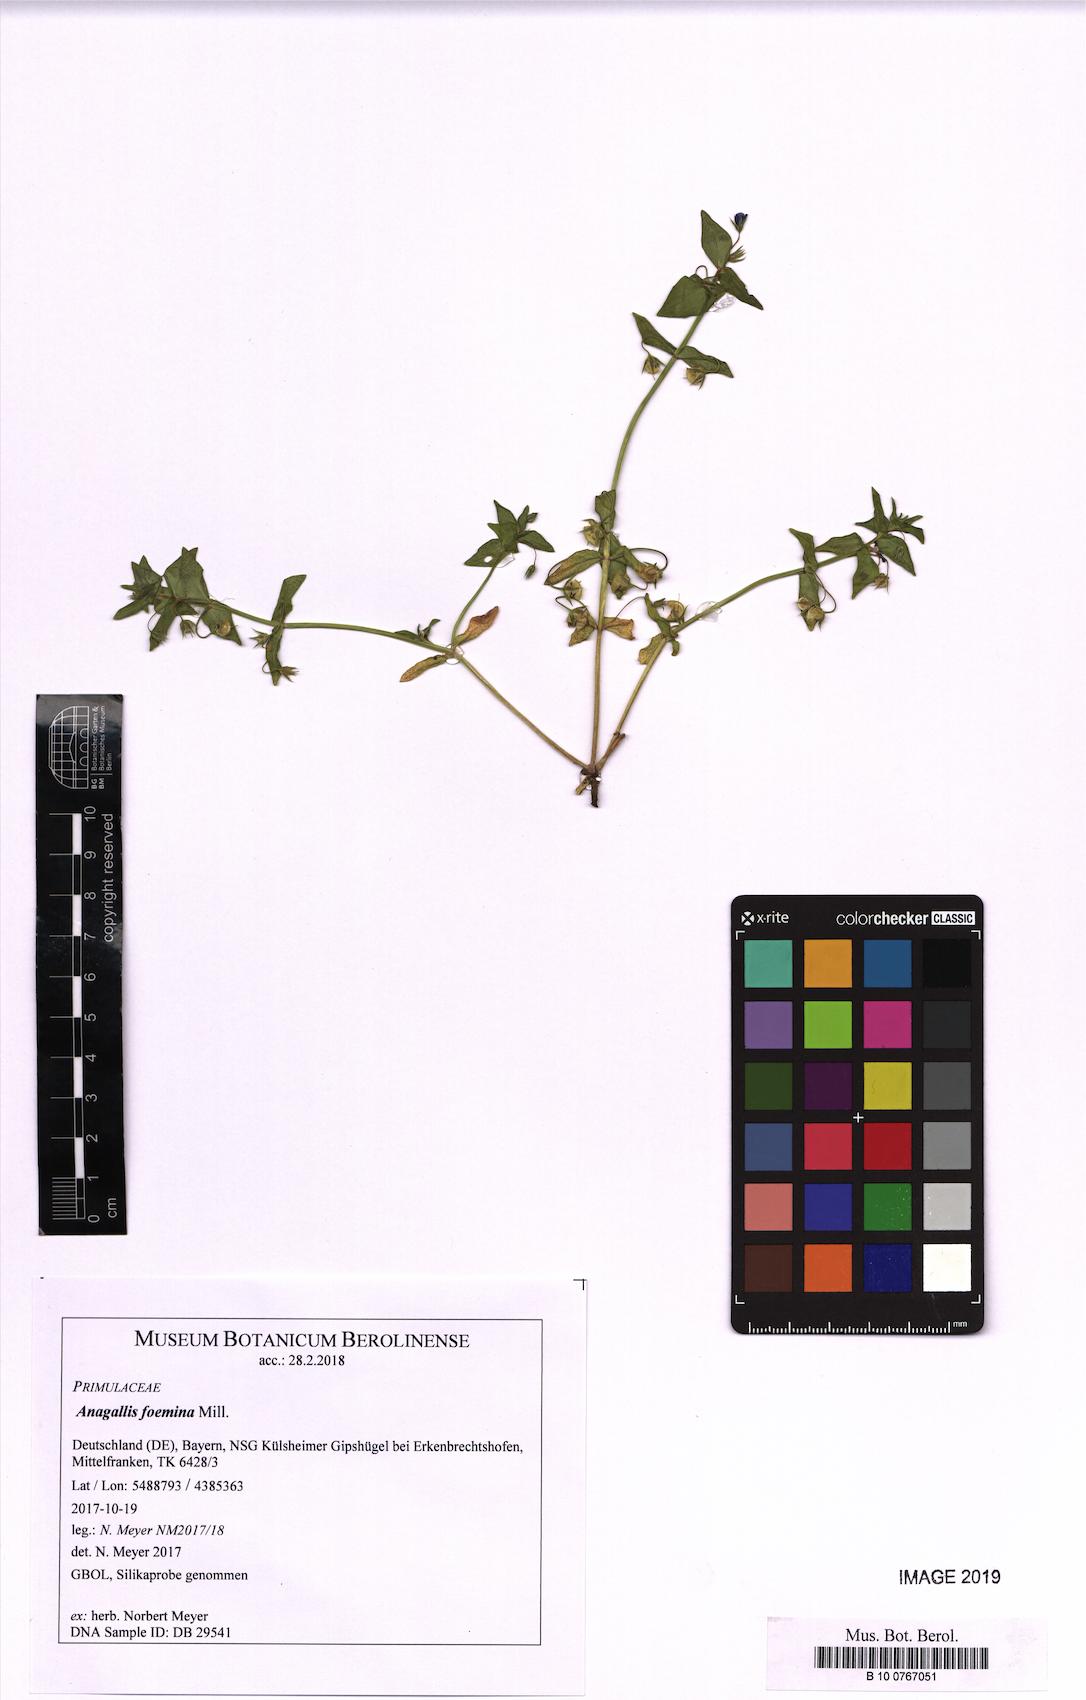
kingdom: Plantae
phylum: Tracheophyta
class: Magnoliopsida
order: Ericales
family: Primulaceae
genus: Lysimachia
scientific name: Lysimachia foemina
